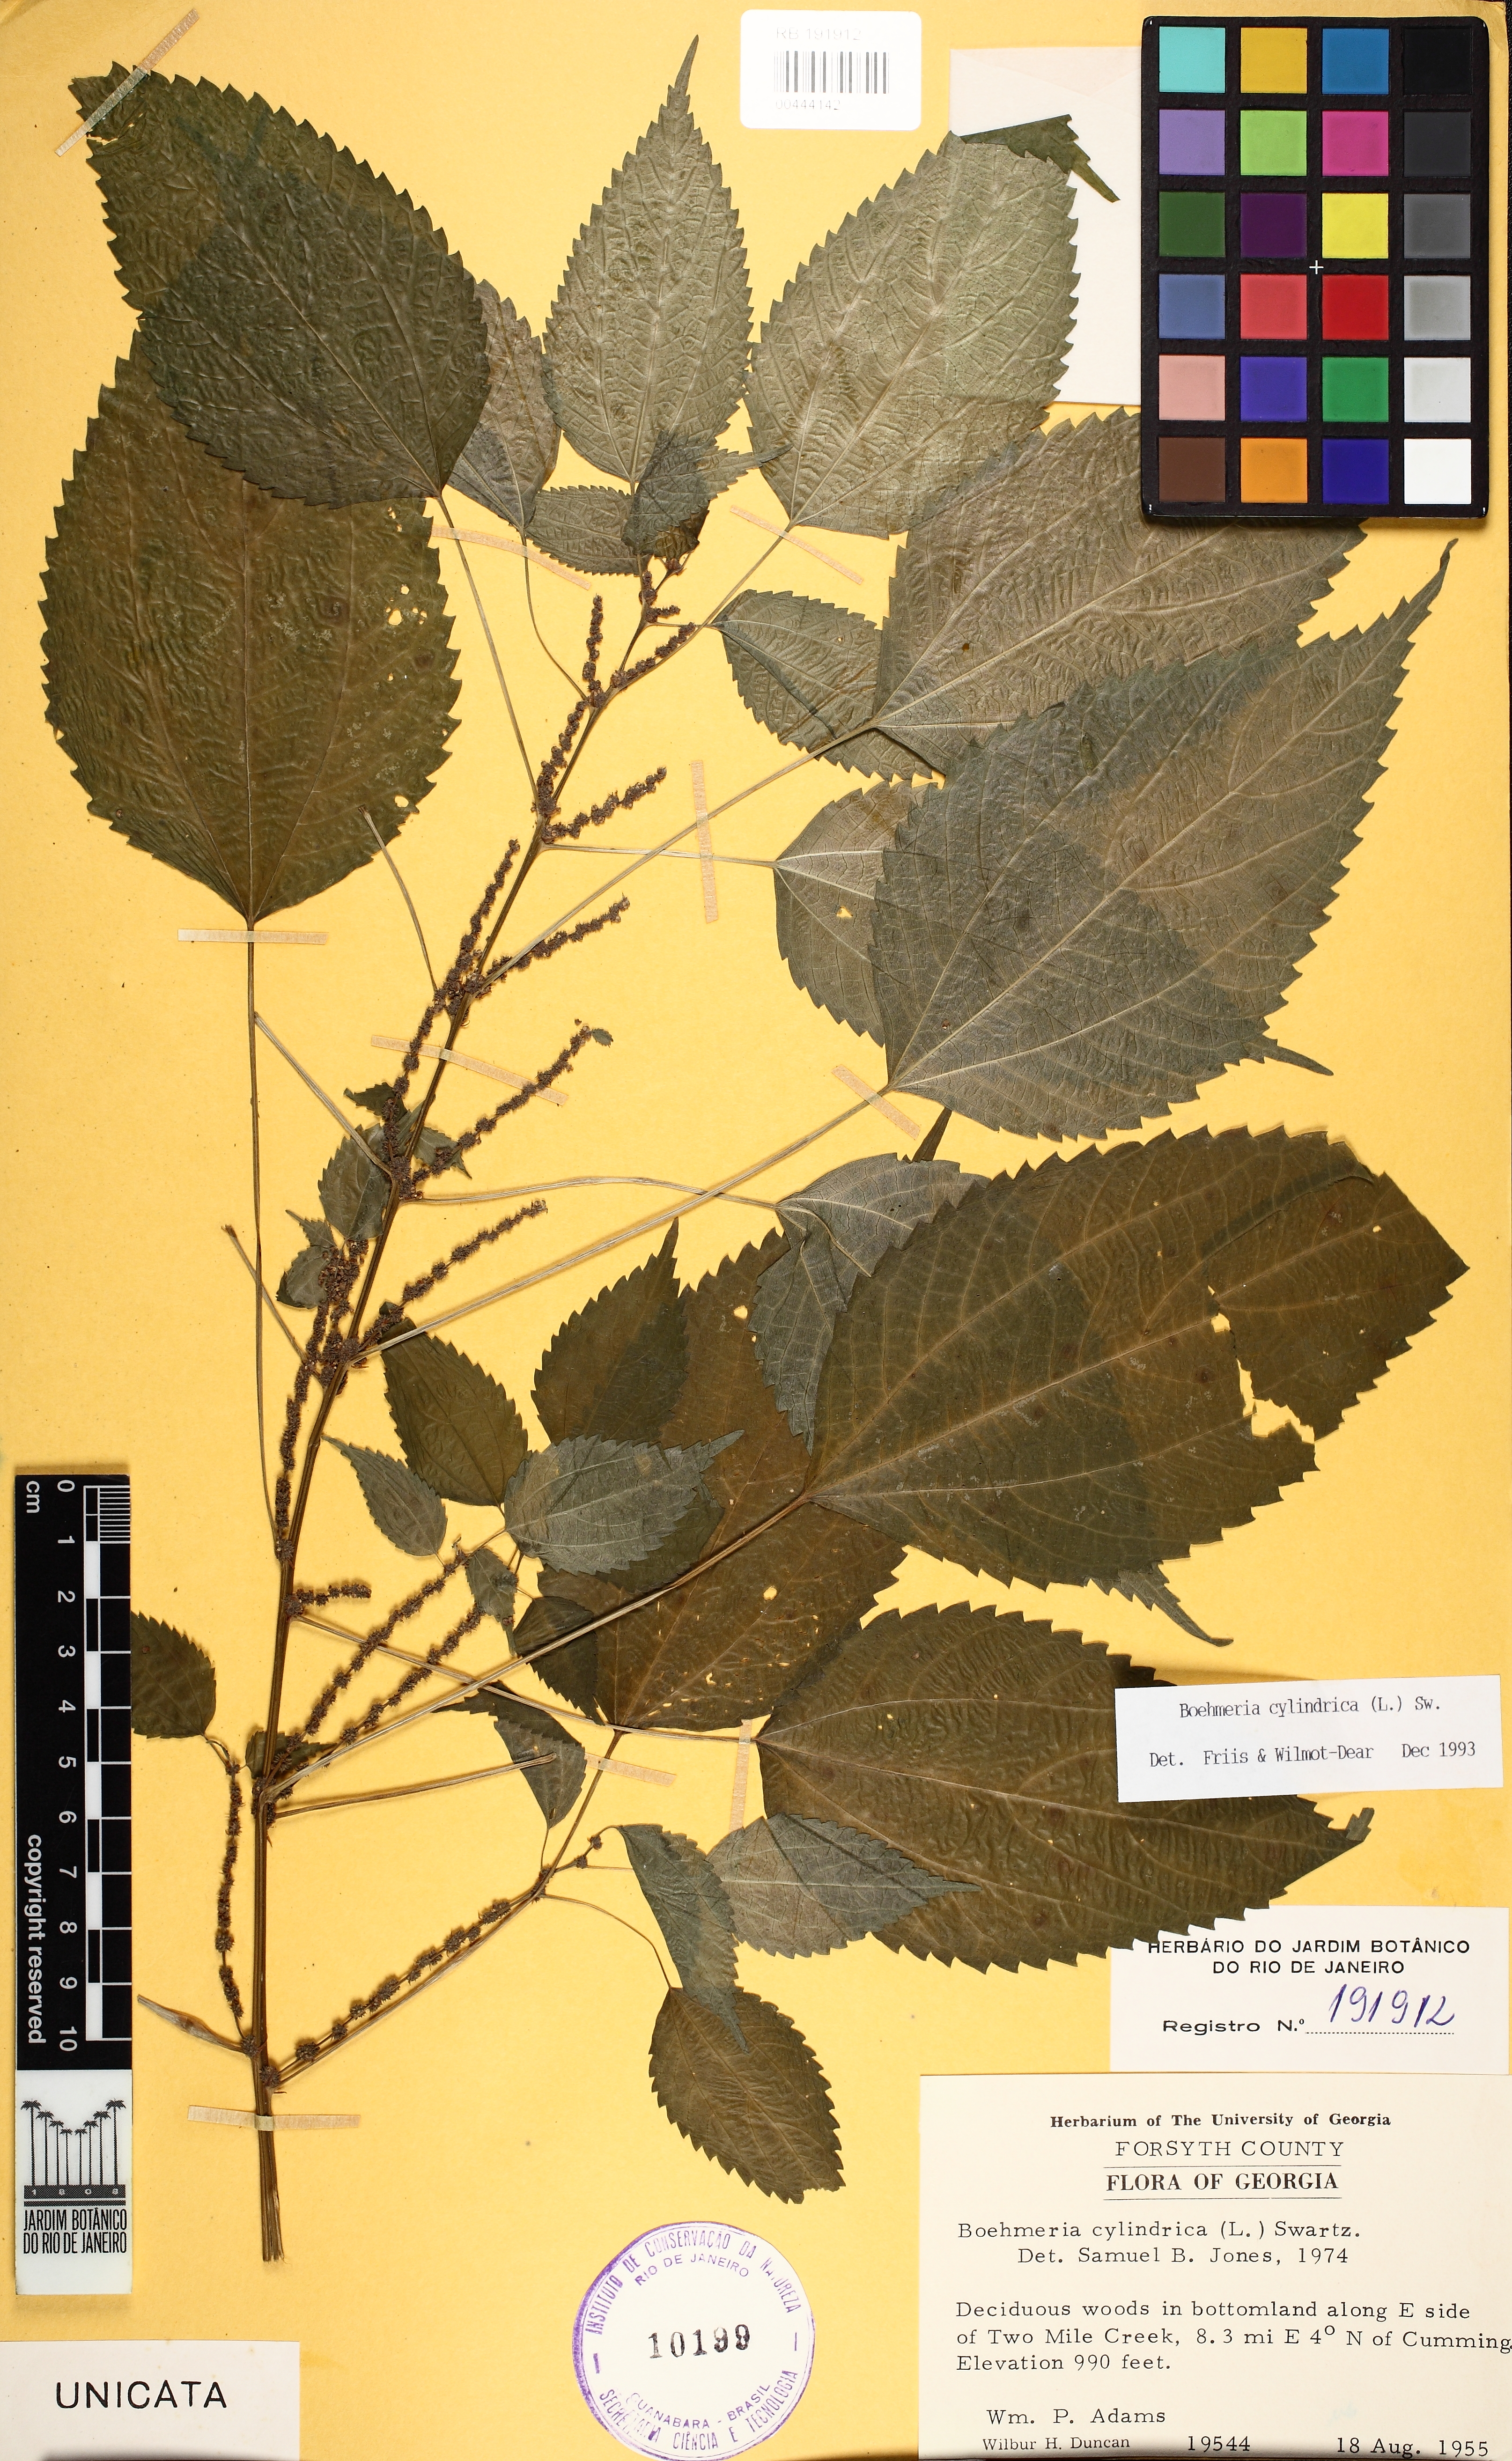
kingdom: Plantae
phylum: Tracheophyta
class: Magnoliopsida
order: Rosales
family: Urticaceae
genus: Boehmeria
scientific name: Boehmeria cylindrica
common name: Bog-hemp
